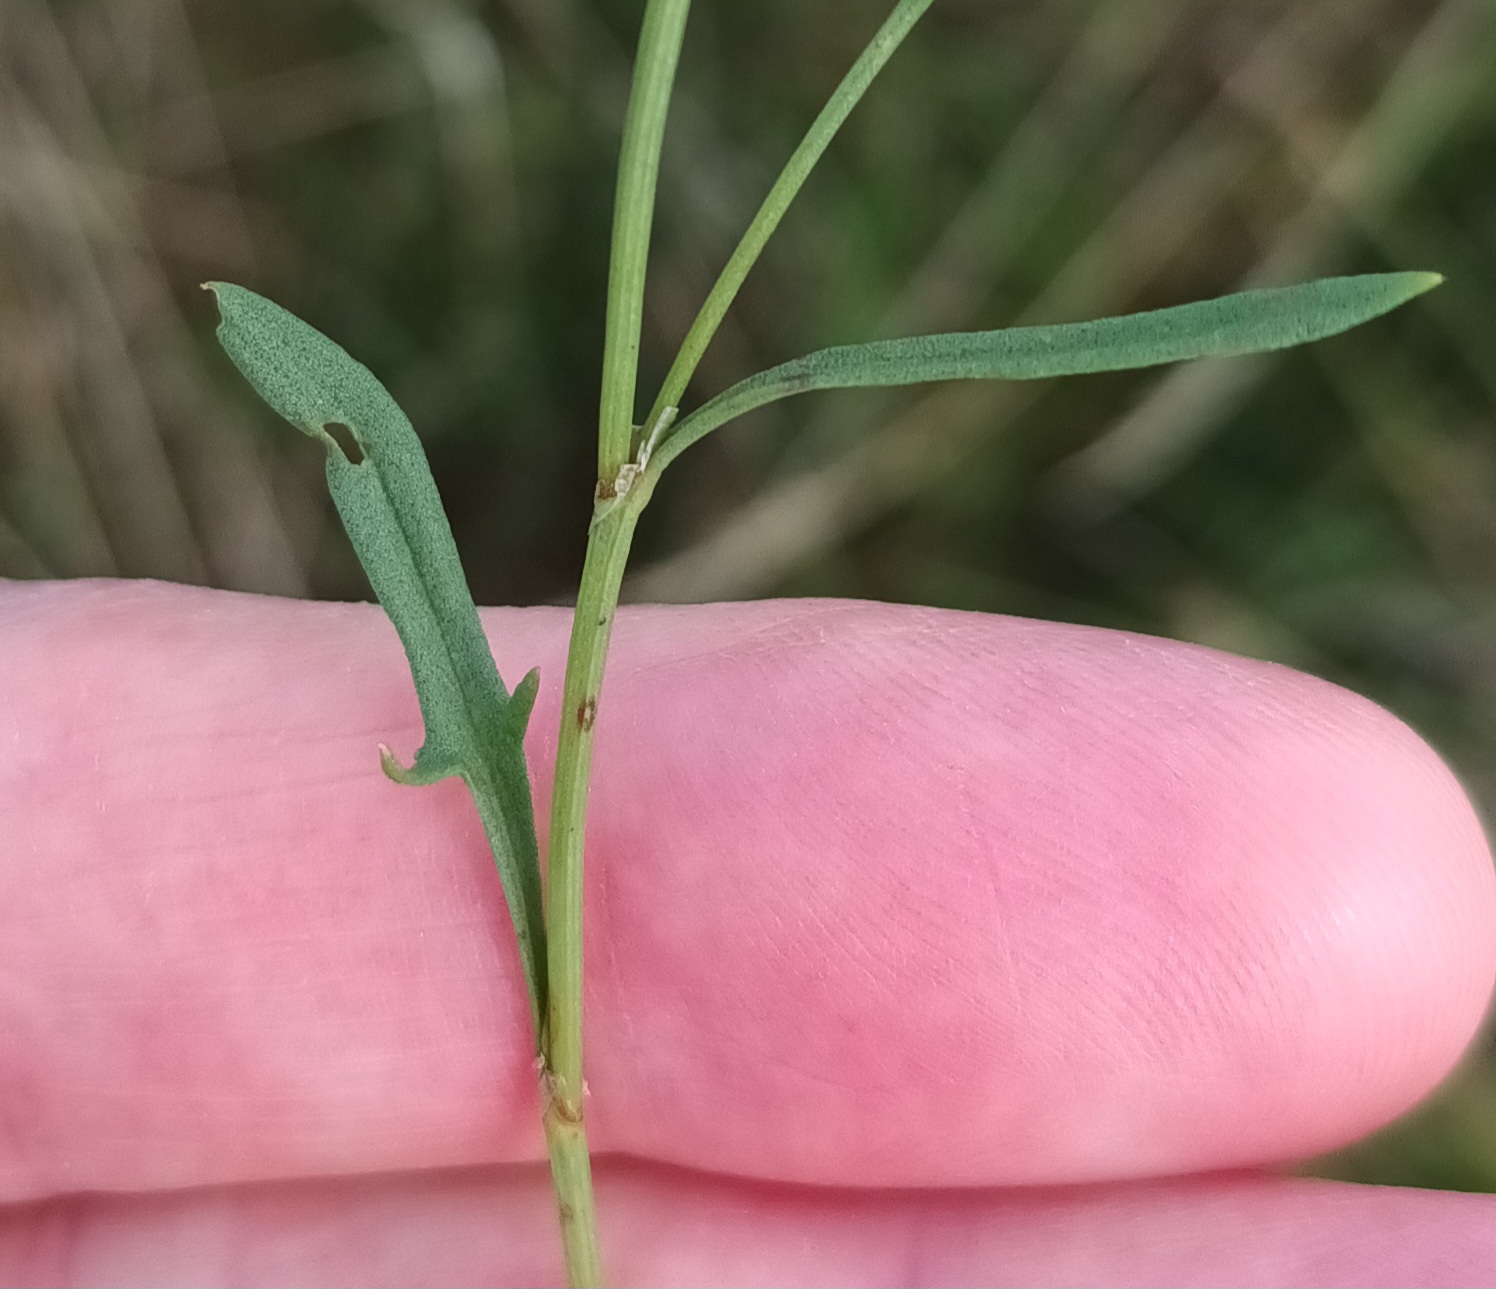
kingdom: Plantae
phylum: Tracheophyta
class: Magnoliopsida
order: Caryophyllales
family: Polygonaceae
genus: Rumex
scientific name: Rumex acetosella
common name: Rødknæ
